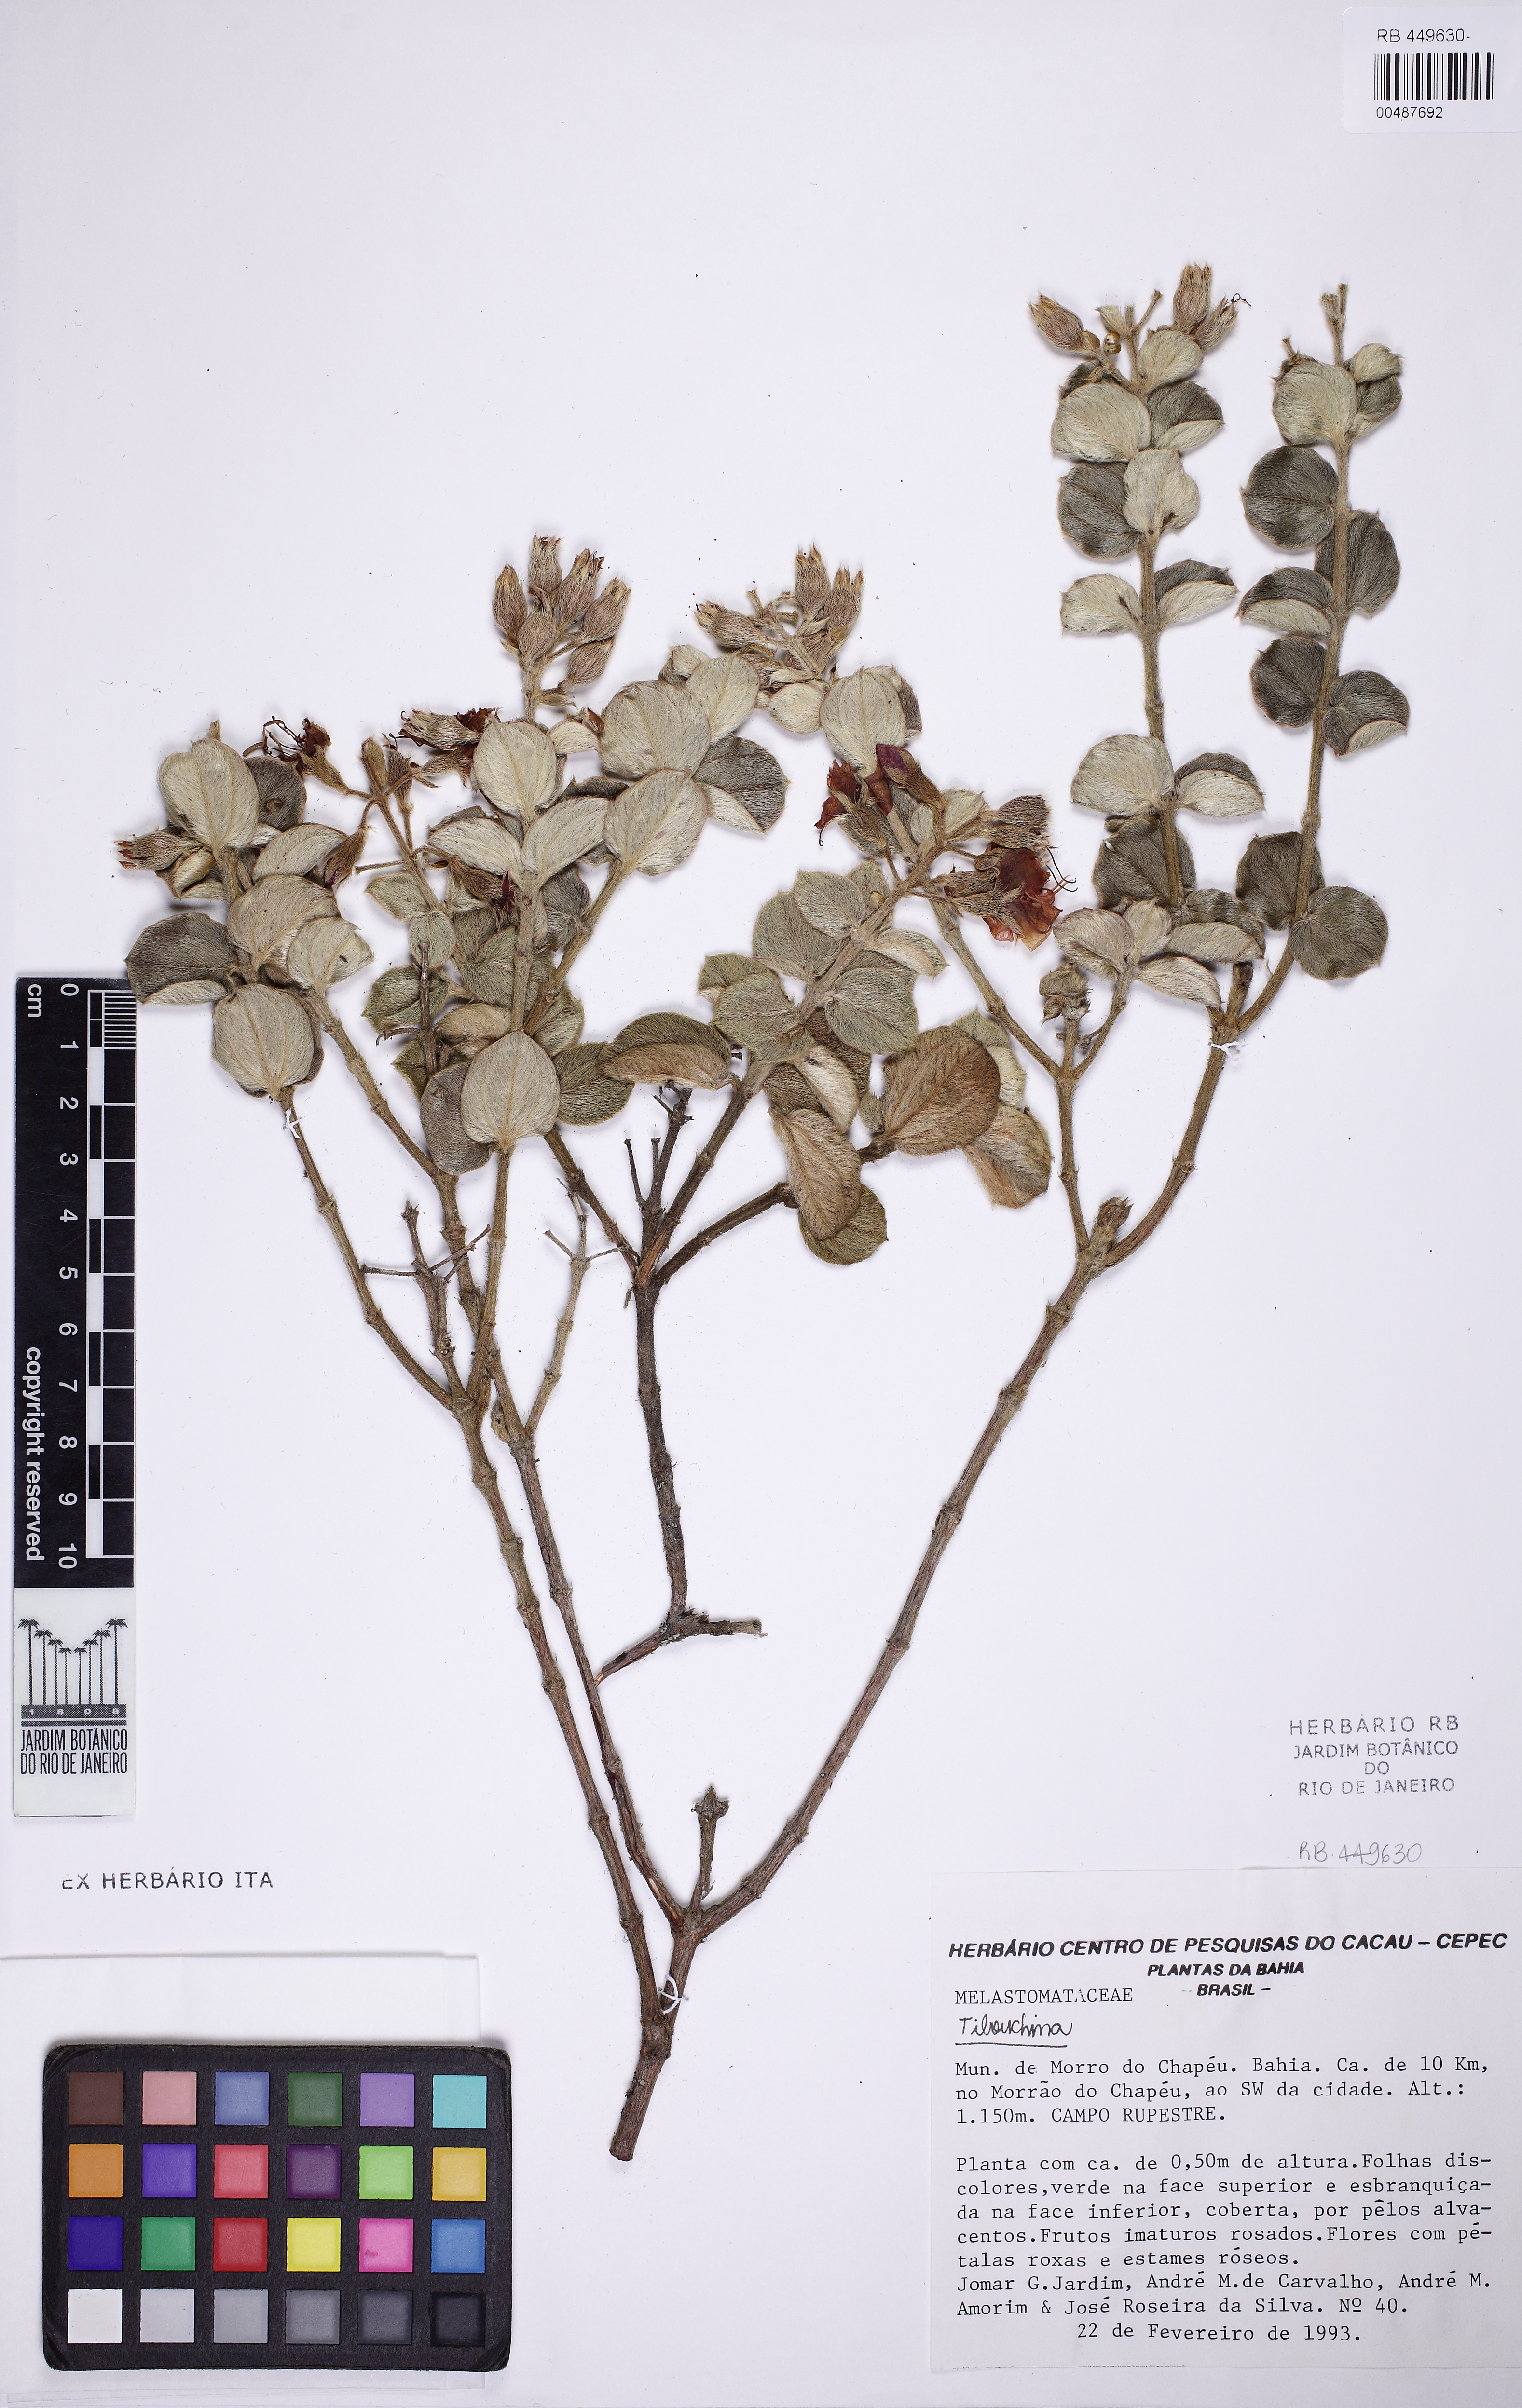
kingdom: Plantae
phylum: Tracheophyta
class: Magnoliopsida
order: Myrtales
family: Melastomataceae
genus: Pleroma
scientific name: Pleroma blanchetianum
